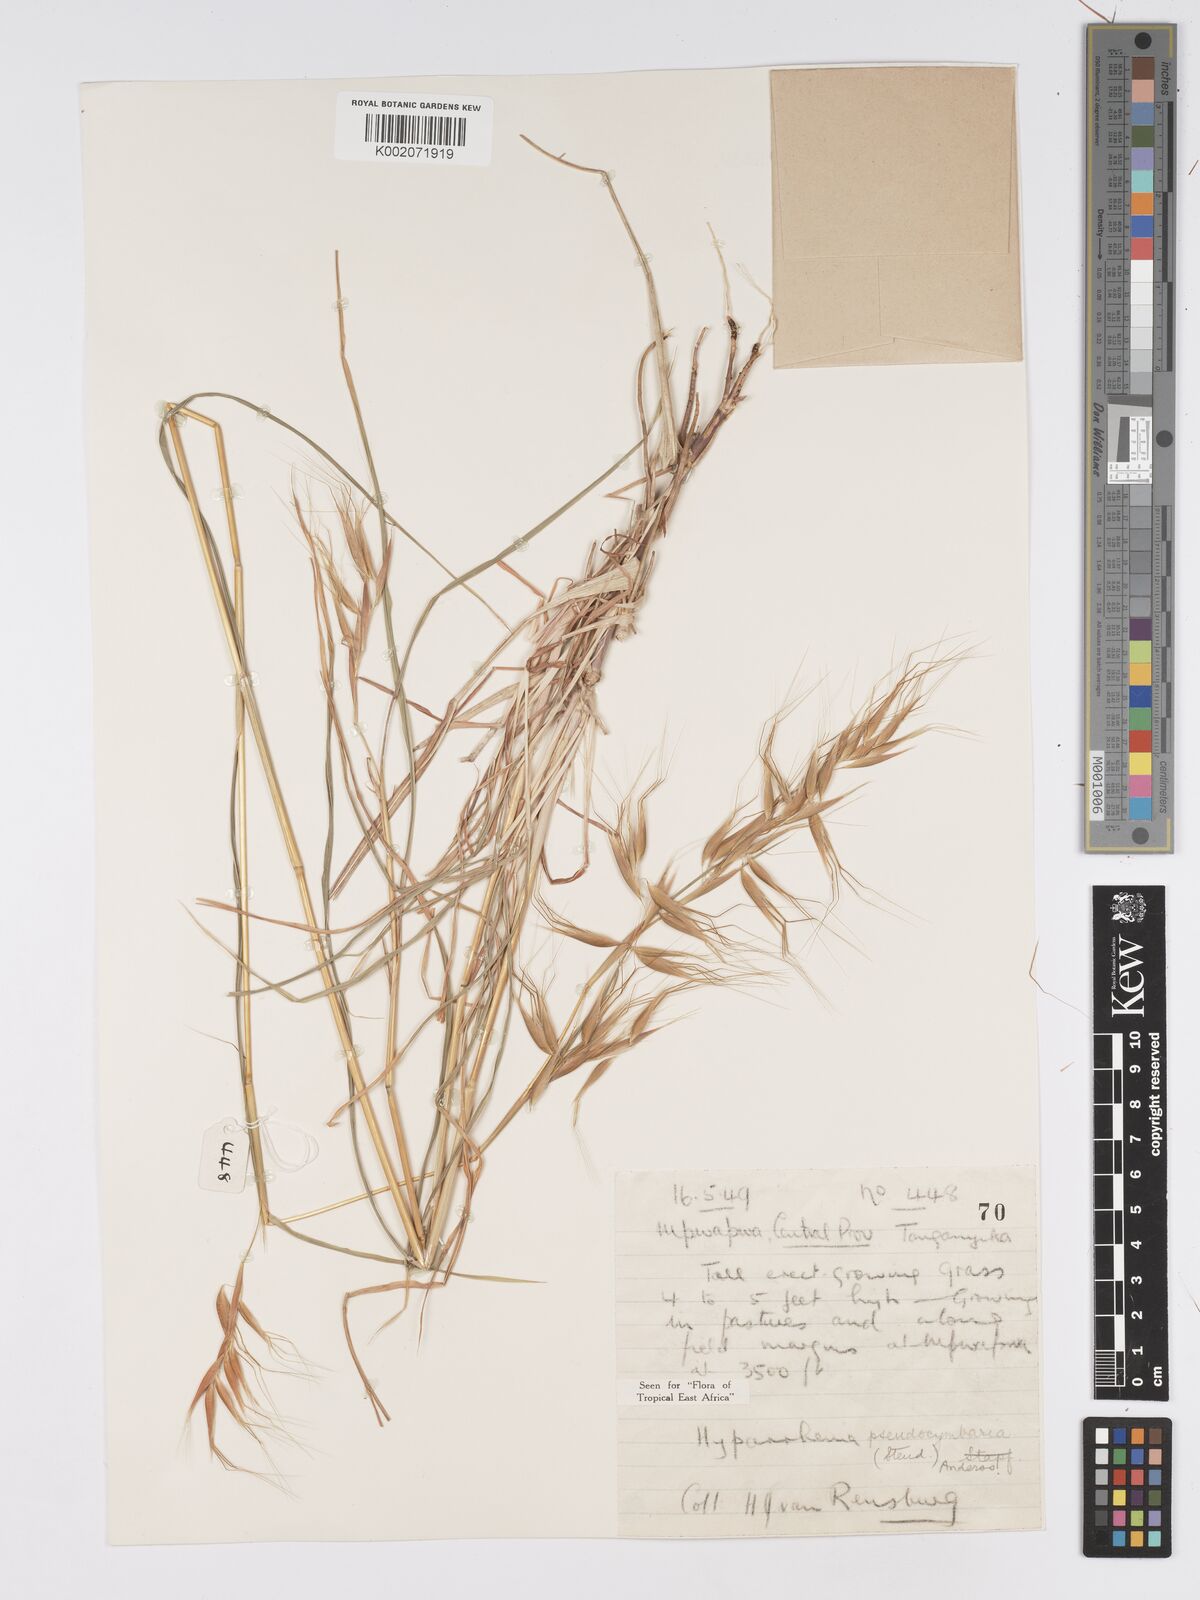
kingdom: Plantae
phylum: Tracheophyta
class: Liliopsida
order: Poales
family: Poaceae
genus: Hyparrhenia
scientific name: Hyparrhenia anthistirioides
